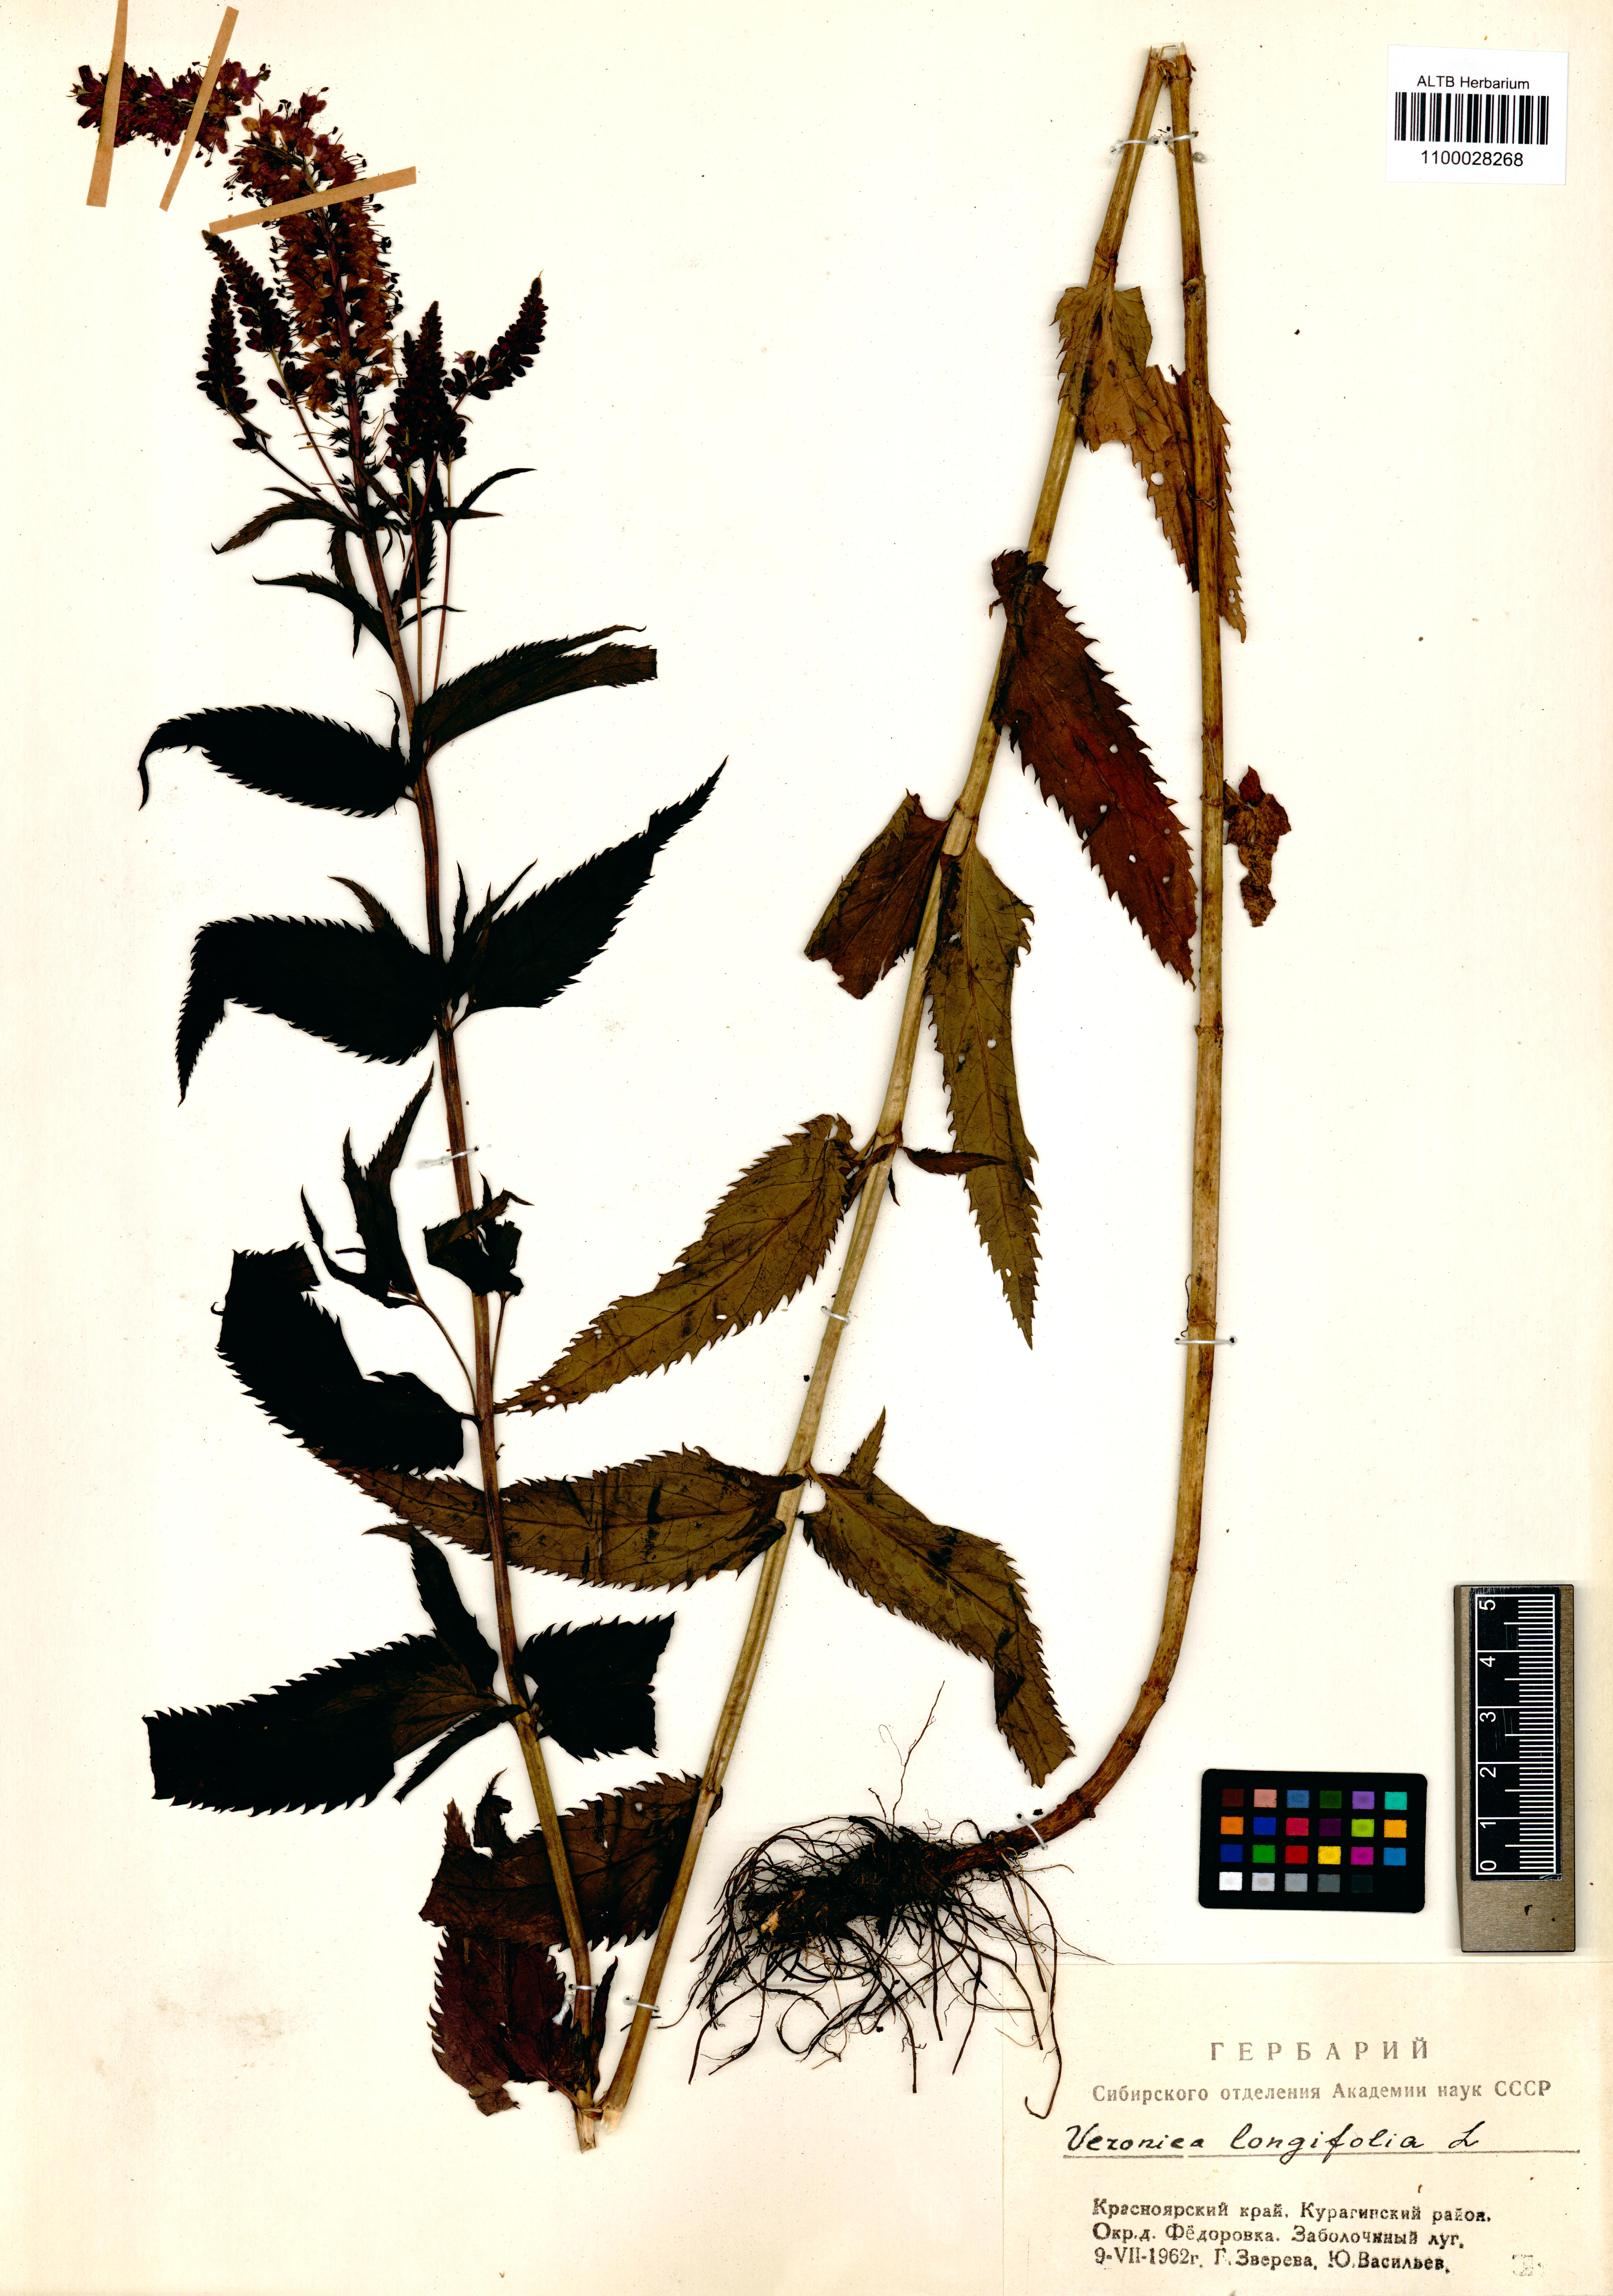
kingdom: Plantae
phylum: Tracheophyta
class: Magnoliopsida
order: Lamiales
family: Plantaginaceae
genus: Veronica
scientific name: Veronica longifolia
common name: Garden speedwell
